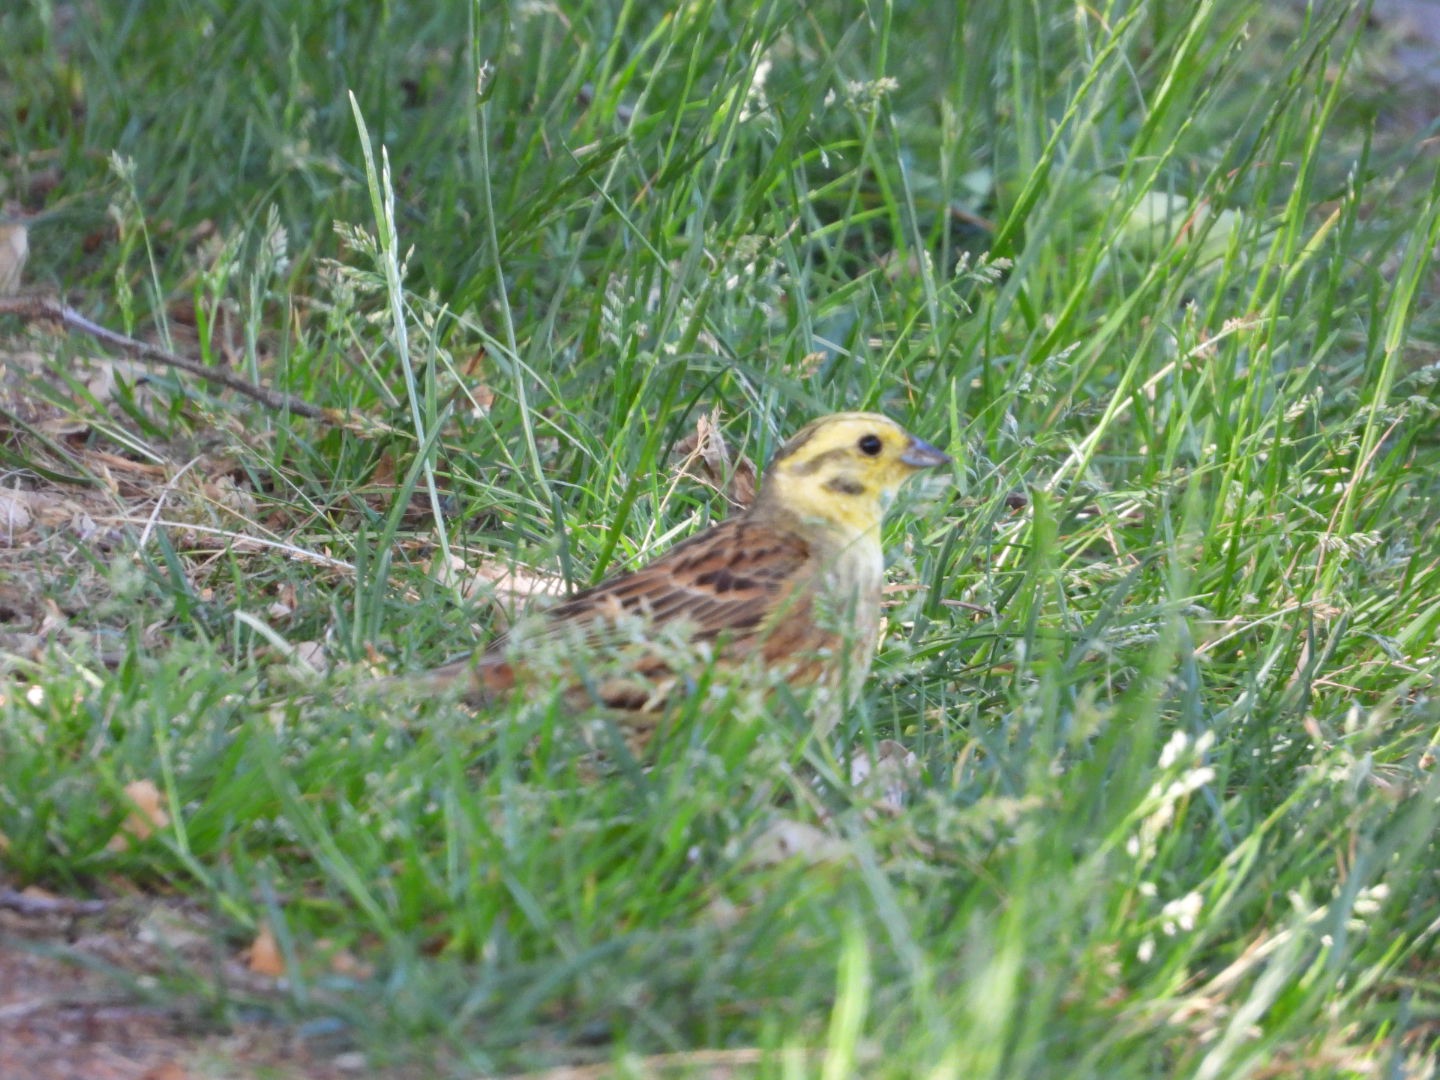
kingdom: Animalia
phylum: Chordata
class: Aves
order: Passeriformes
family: Emberizidae
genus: Emberiza
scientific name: Emberiza citrinella
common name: Gulspurv
